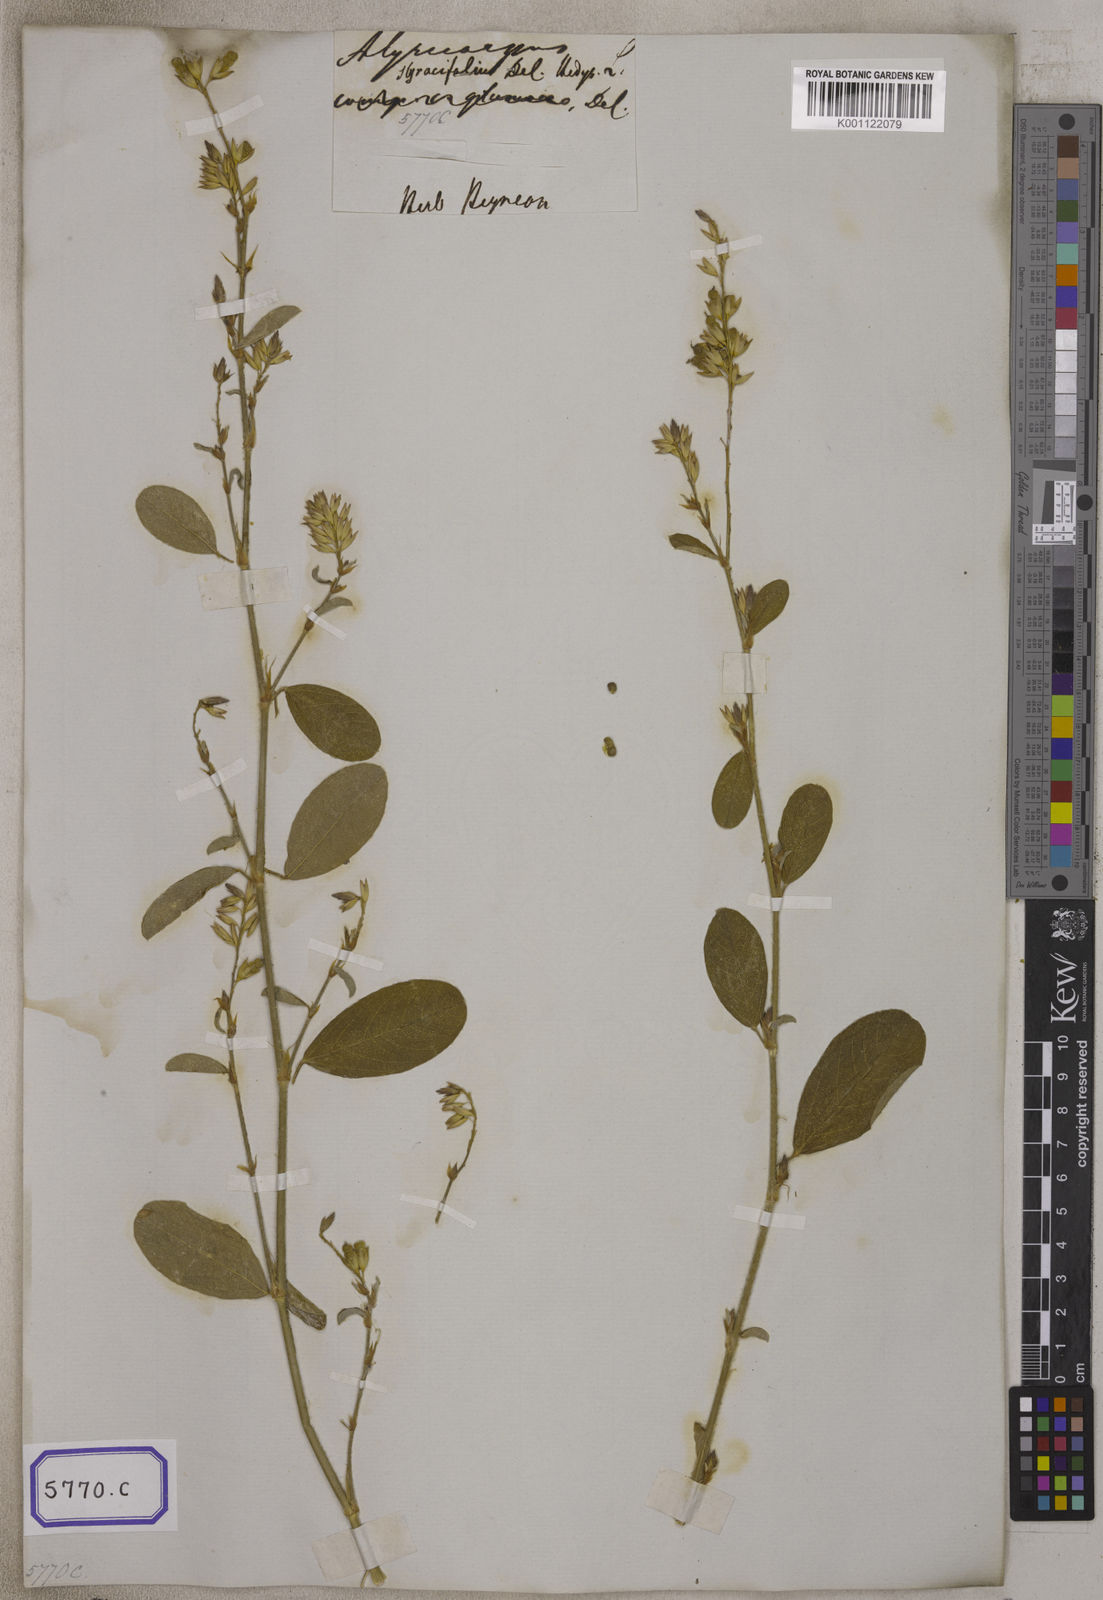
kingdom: Plantae
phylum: Tracheophyta
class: Magnoliopsida
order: Fabales
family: Fabaceae
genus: Alysicarpus
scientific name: Alysicarpus scariosus
